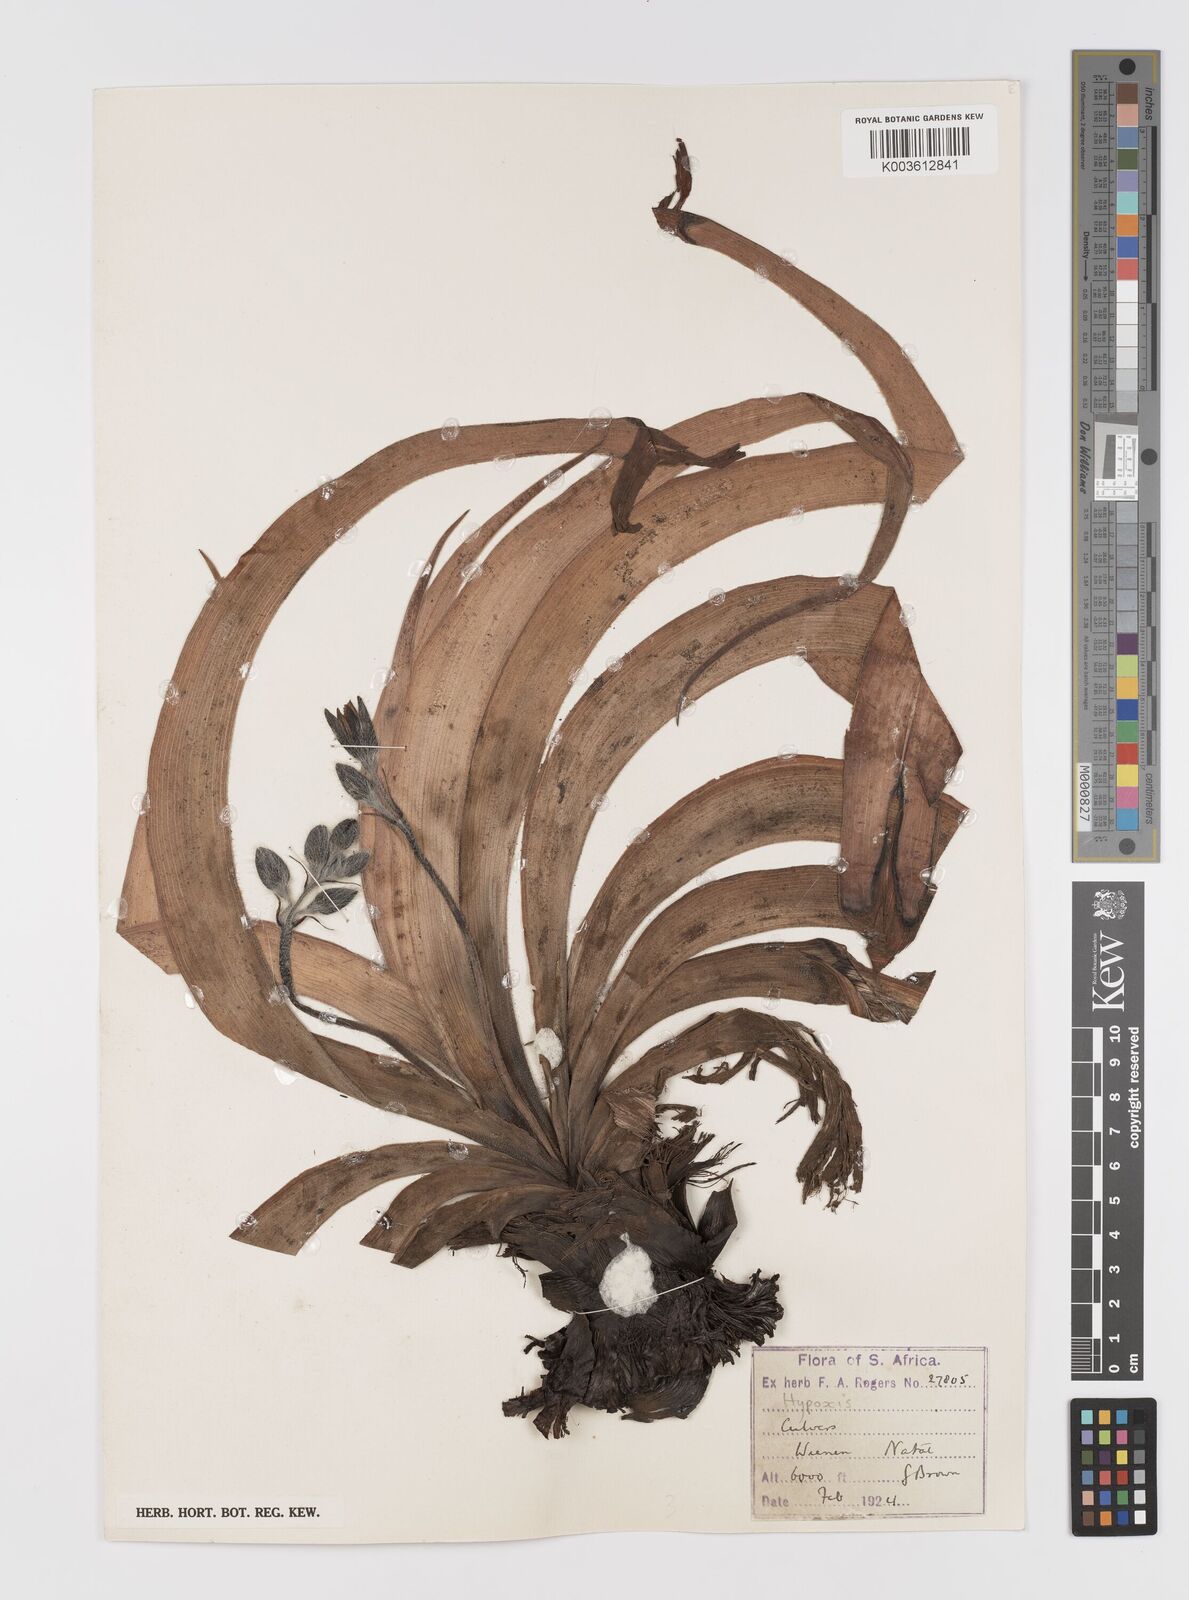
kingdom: Plantae
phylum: Tracheophyta
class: Liliopsida
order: Asparagales
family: Hypoxidaceae
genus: Hypoxis
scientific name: Hypoxis hemerocallidea
